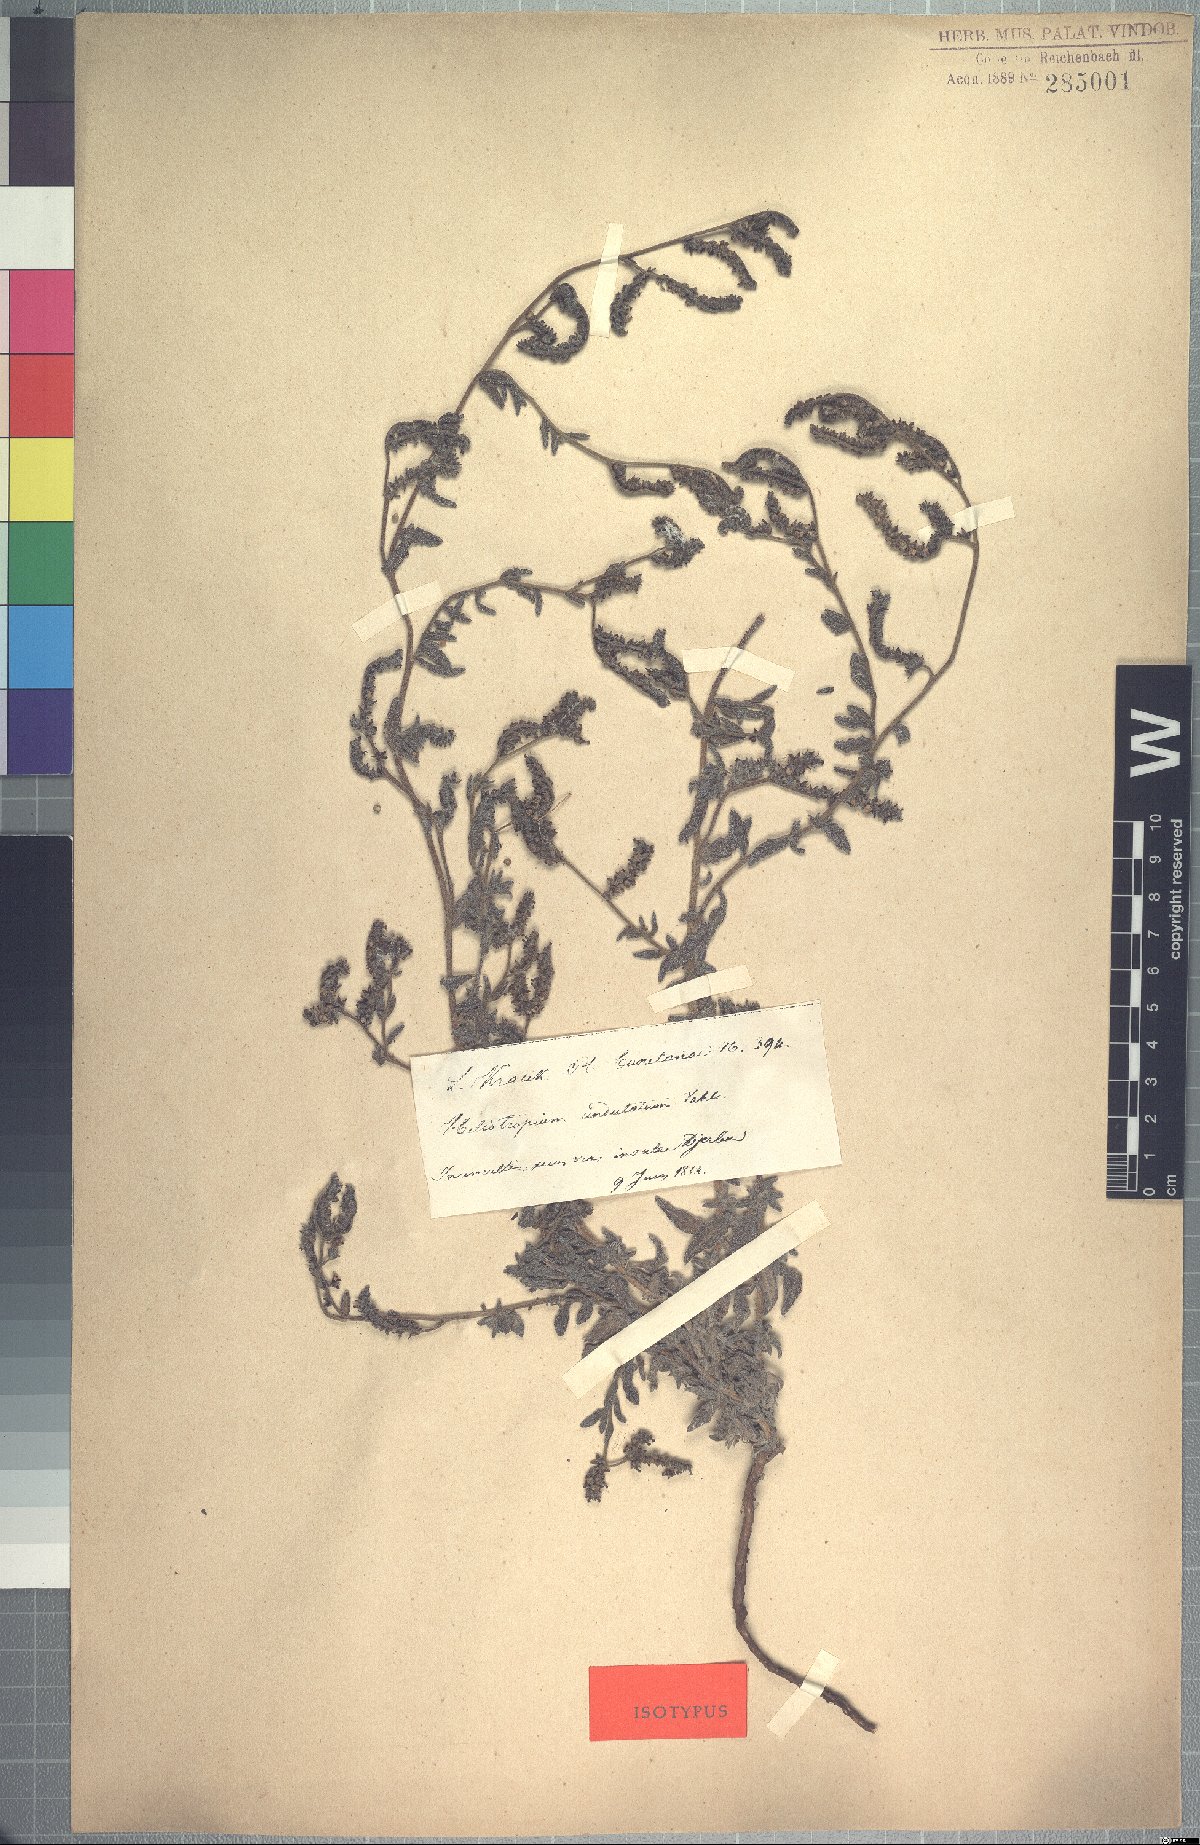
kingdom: Plantae
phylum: Tracheophyta
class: Magnoliopsida
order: Boraginales
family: Heliotropiaceae
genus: Heliotropium
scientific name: Heliotropium crispum
